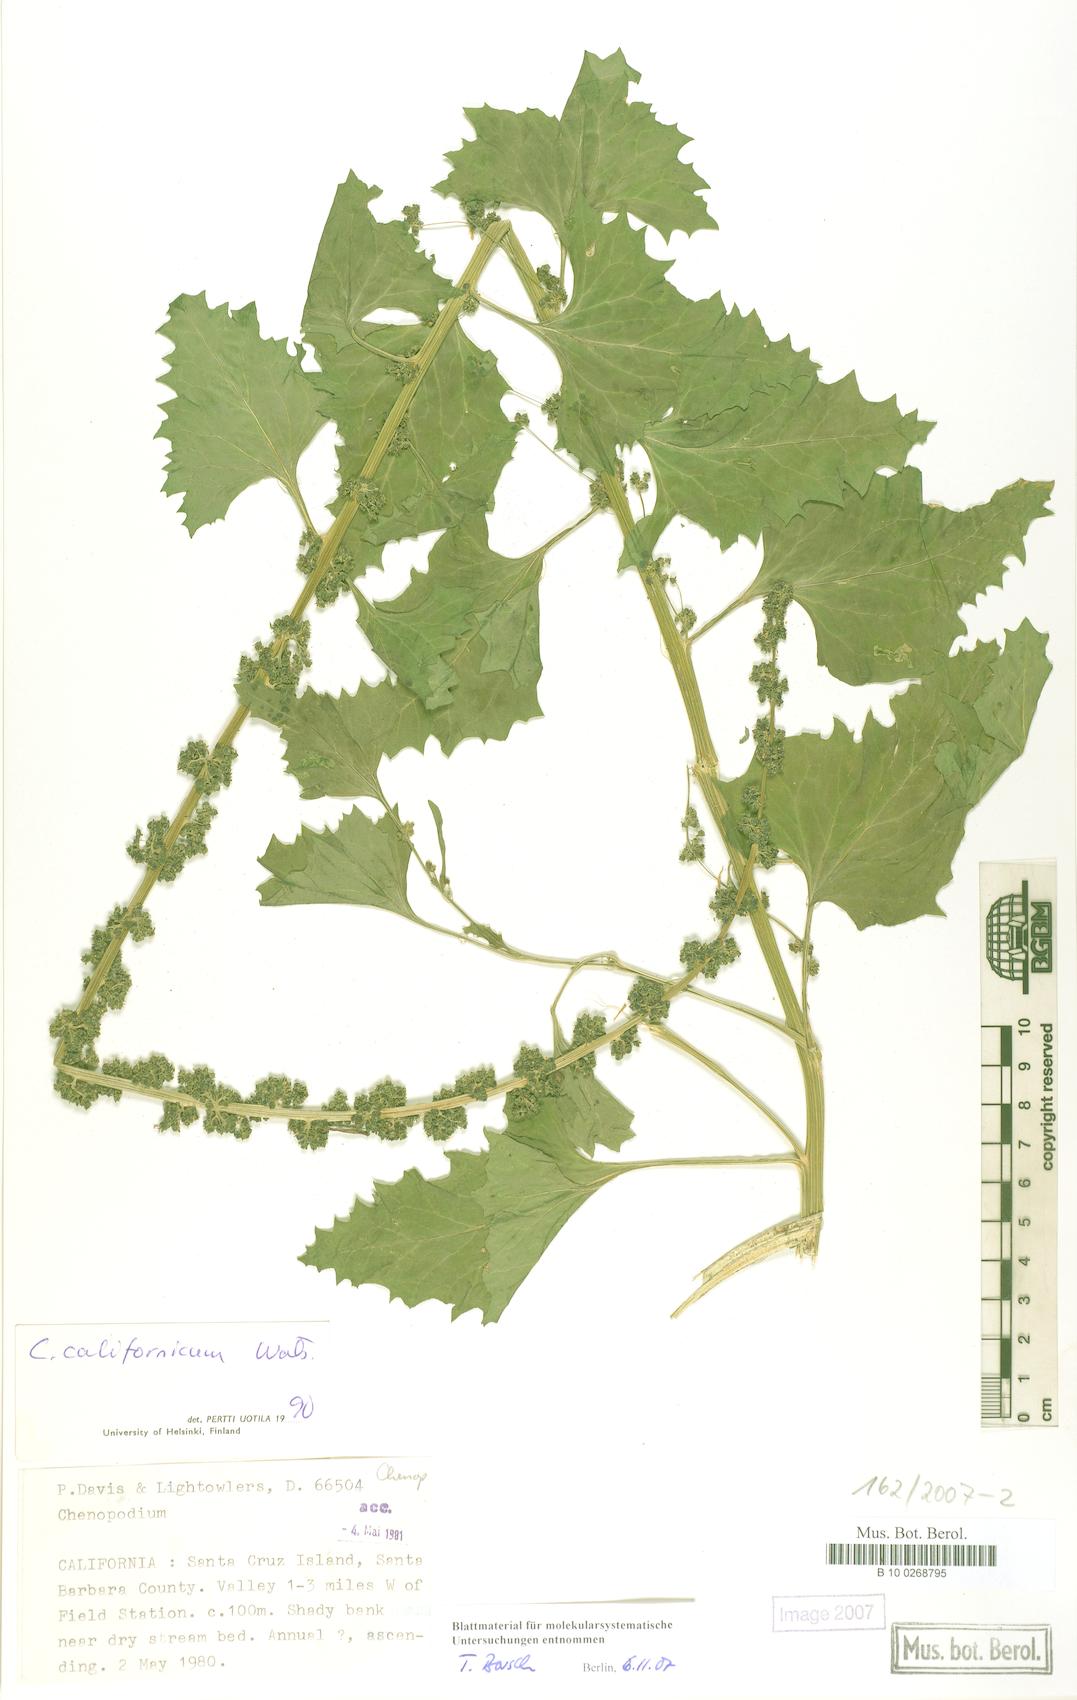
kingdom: Plantae
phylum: Tracheophyta
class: Magnoliopsida
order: Caryophyllales
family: Amaranthaceae
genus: Blitum
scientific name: Blitum californicum
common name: California goosefoot
